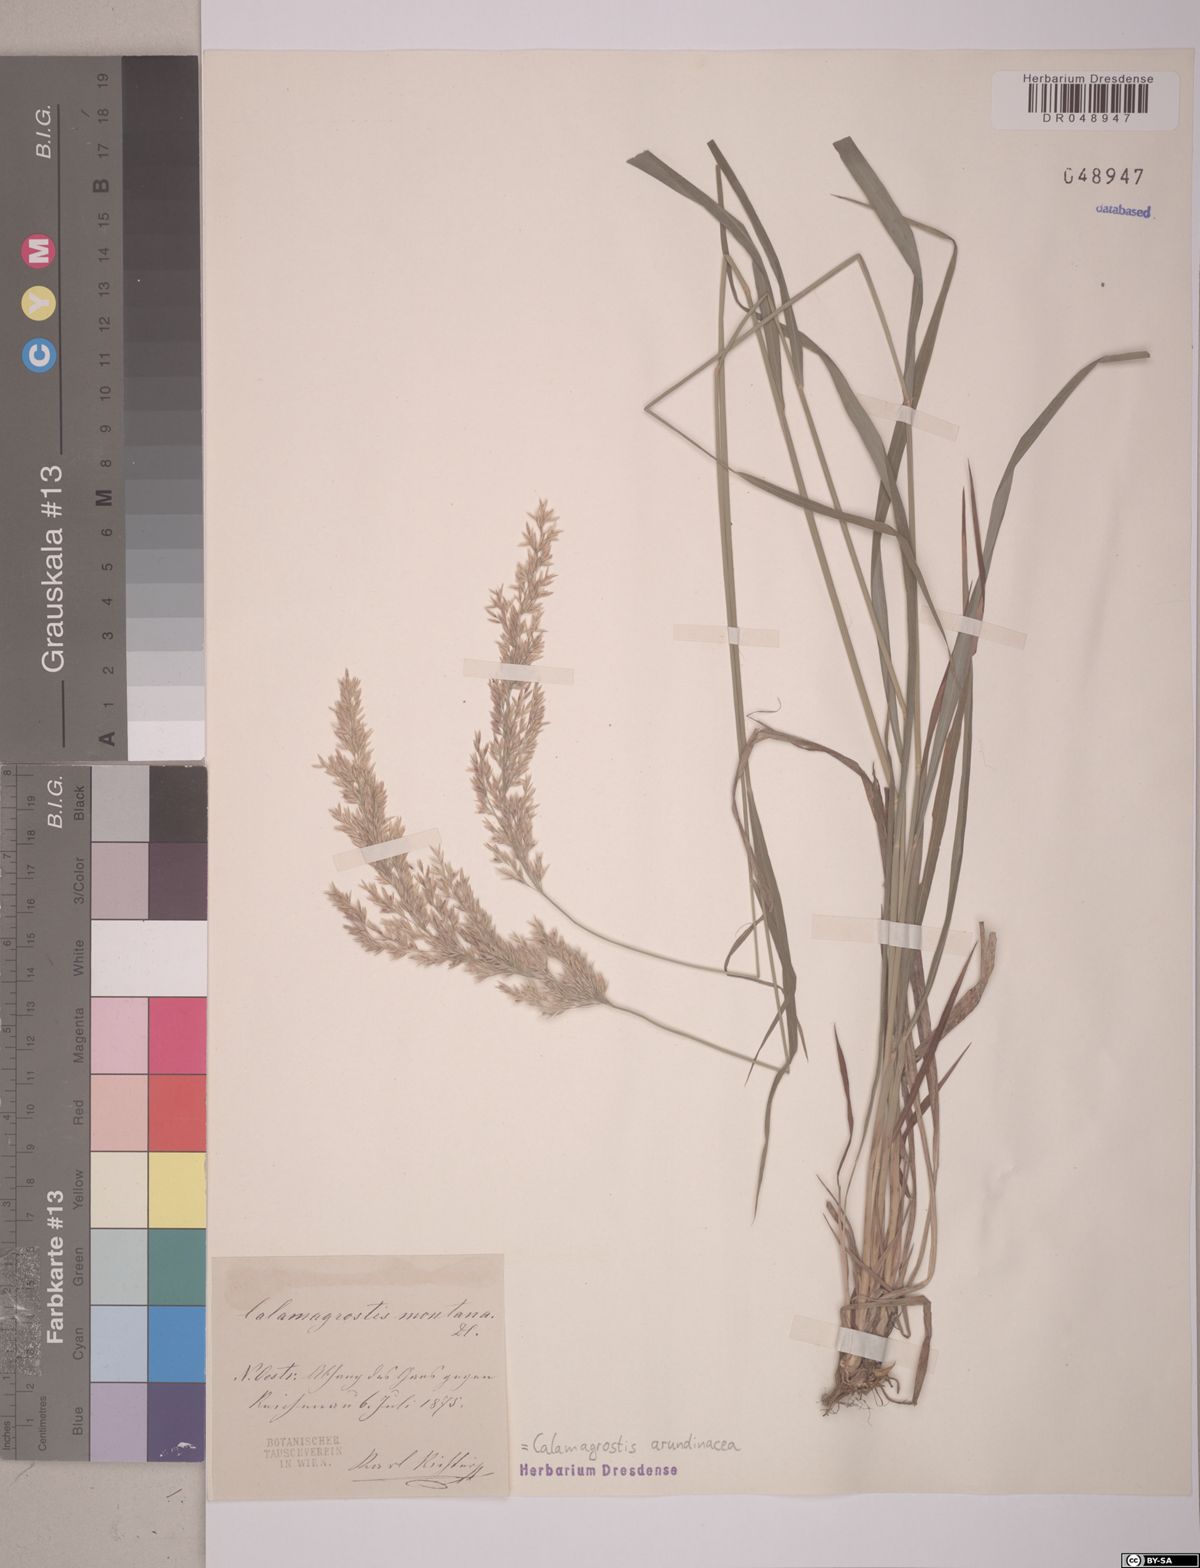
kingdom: Plantae
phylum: Tracheophyta
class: Liliopsida
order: Poales
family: Poaceae
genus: Calamagrostis
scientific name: Calamagrostis arundinacea
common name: Metskastik
